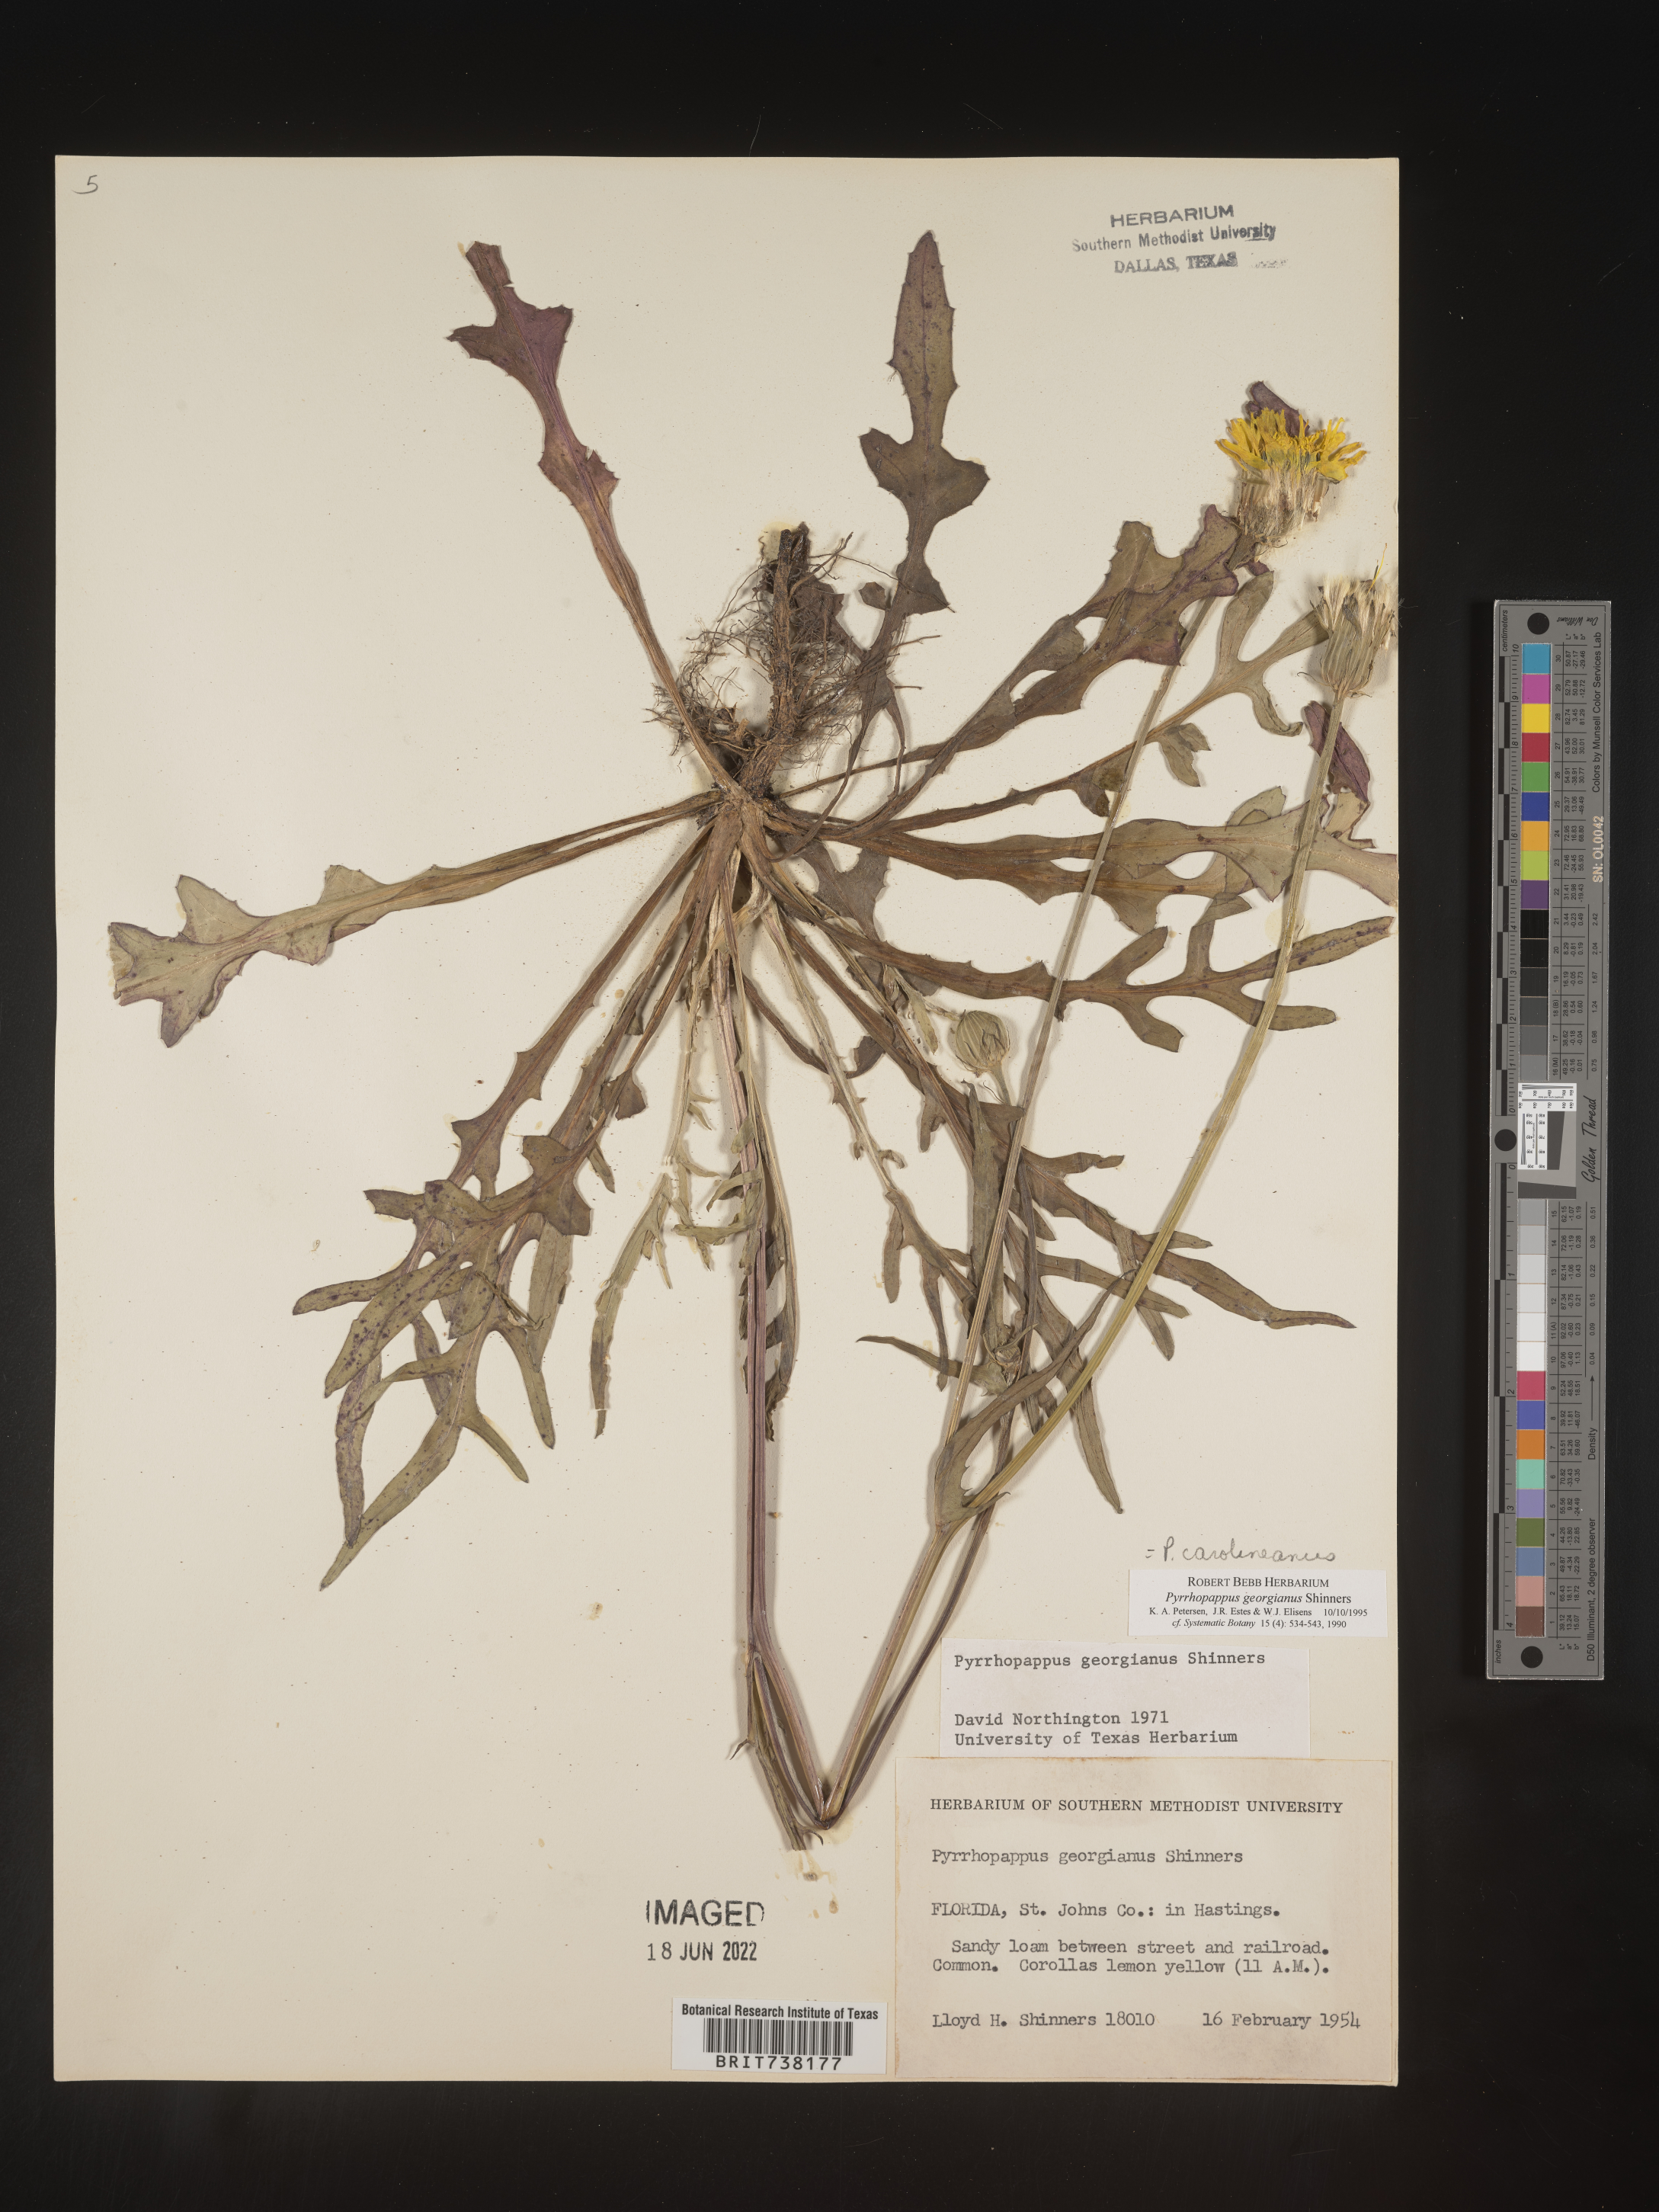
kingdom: Plantae
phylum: Tracheophyta
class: Magnoliopsida
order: Asterales
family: Asteraceae
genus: Pyrrhopappus
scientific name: Pyrrhopappus carolinianus
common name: Carolina desert-chicory
